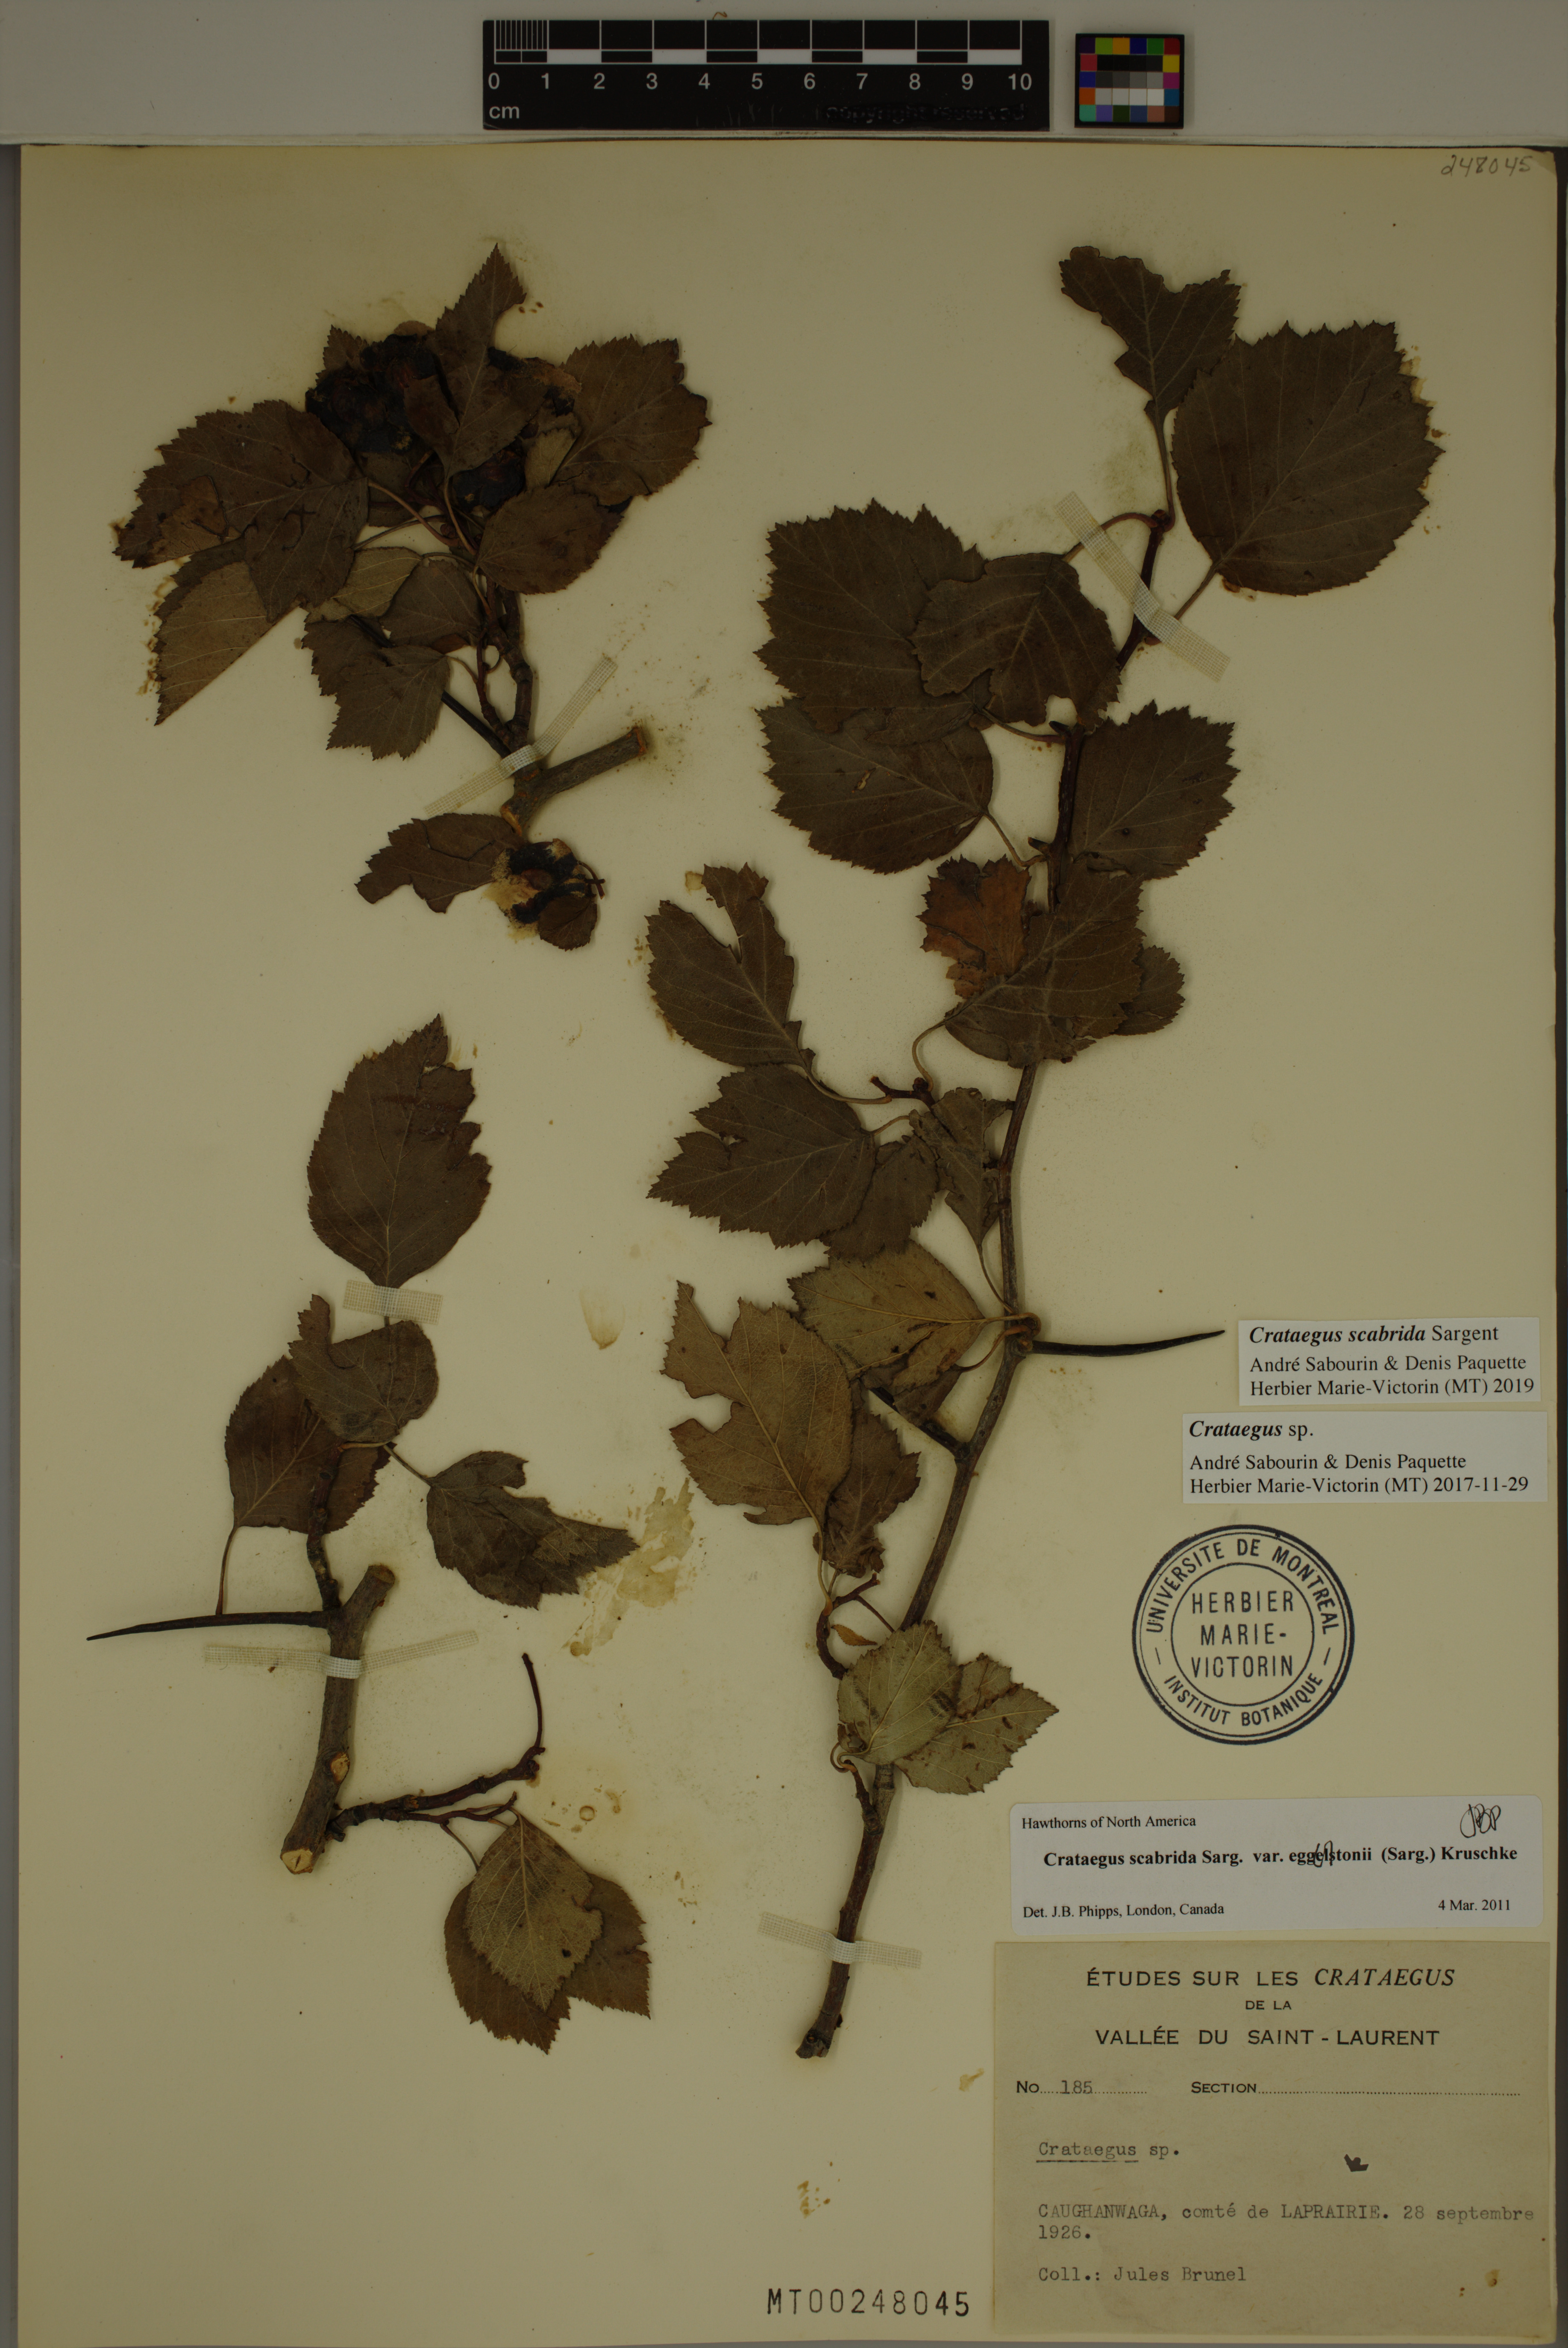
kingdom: Plantae
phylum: Tracheophyta
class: Magnoliopsida
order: Rosales
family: Rosaceae
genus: Crataegus
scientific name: Crataegus scabrida
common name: Rough hawthorn
